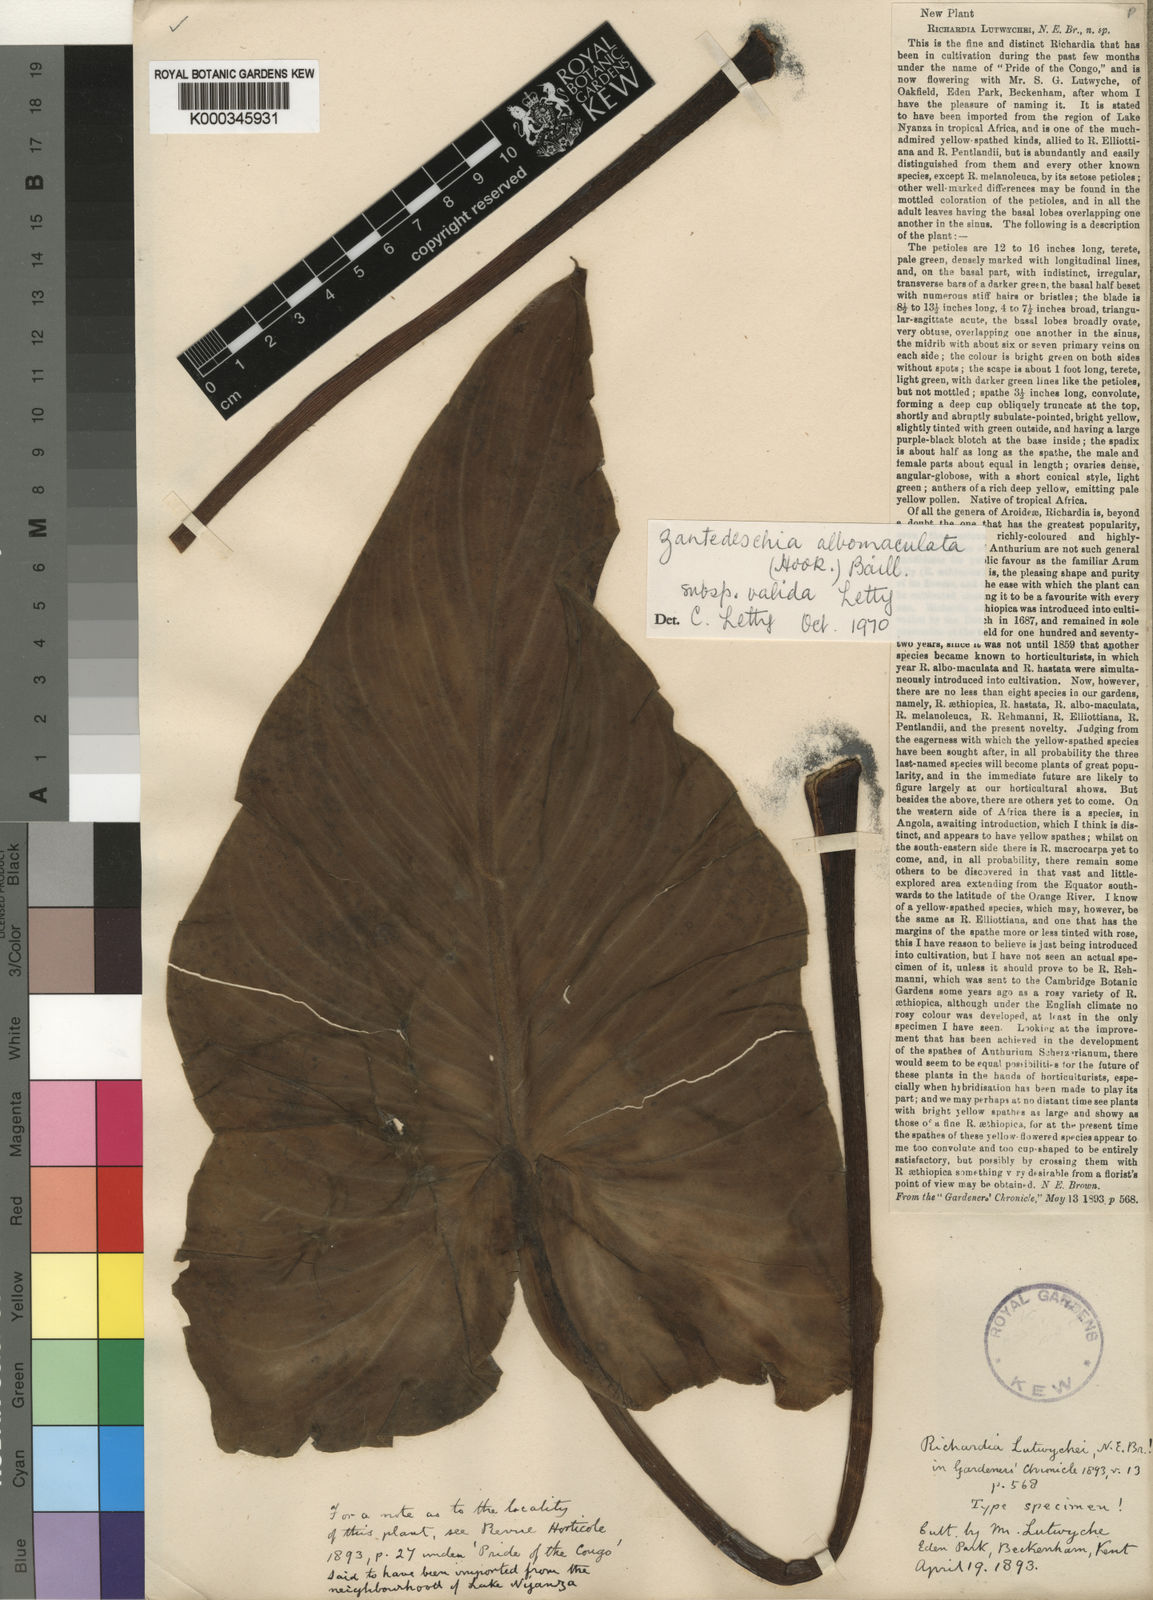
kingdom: Plantae
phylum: Tracheophyta
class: Liliopsida
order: Alismatales
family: Araceae
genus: Zantedeschia
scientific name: Zantedeschia valida
